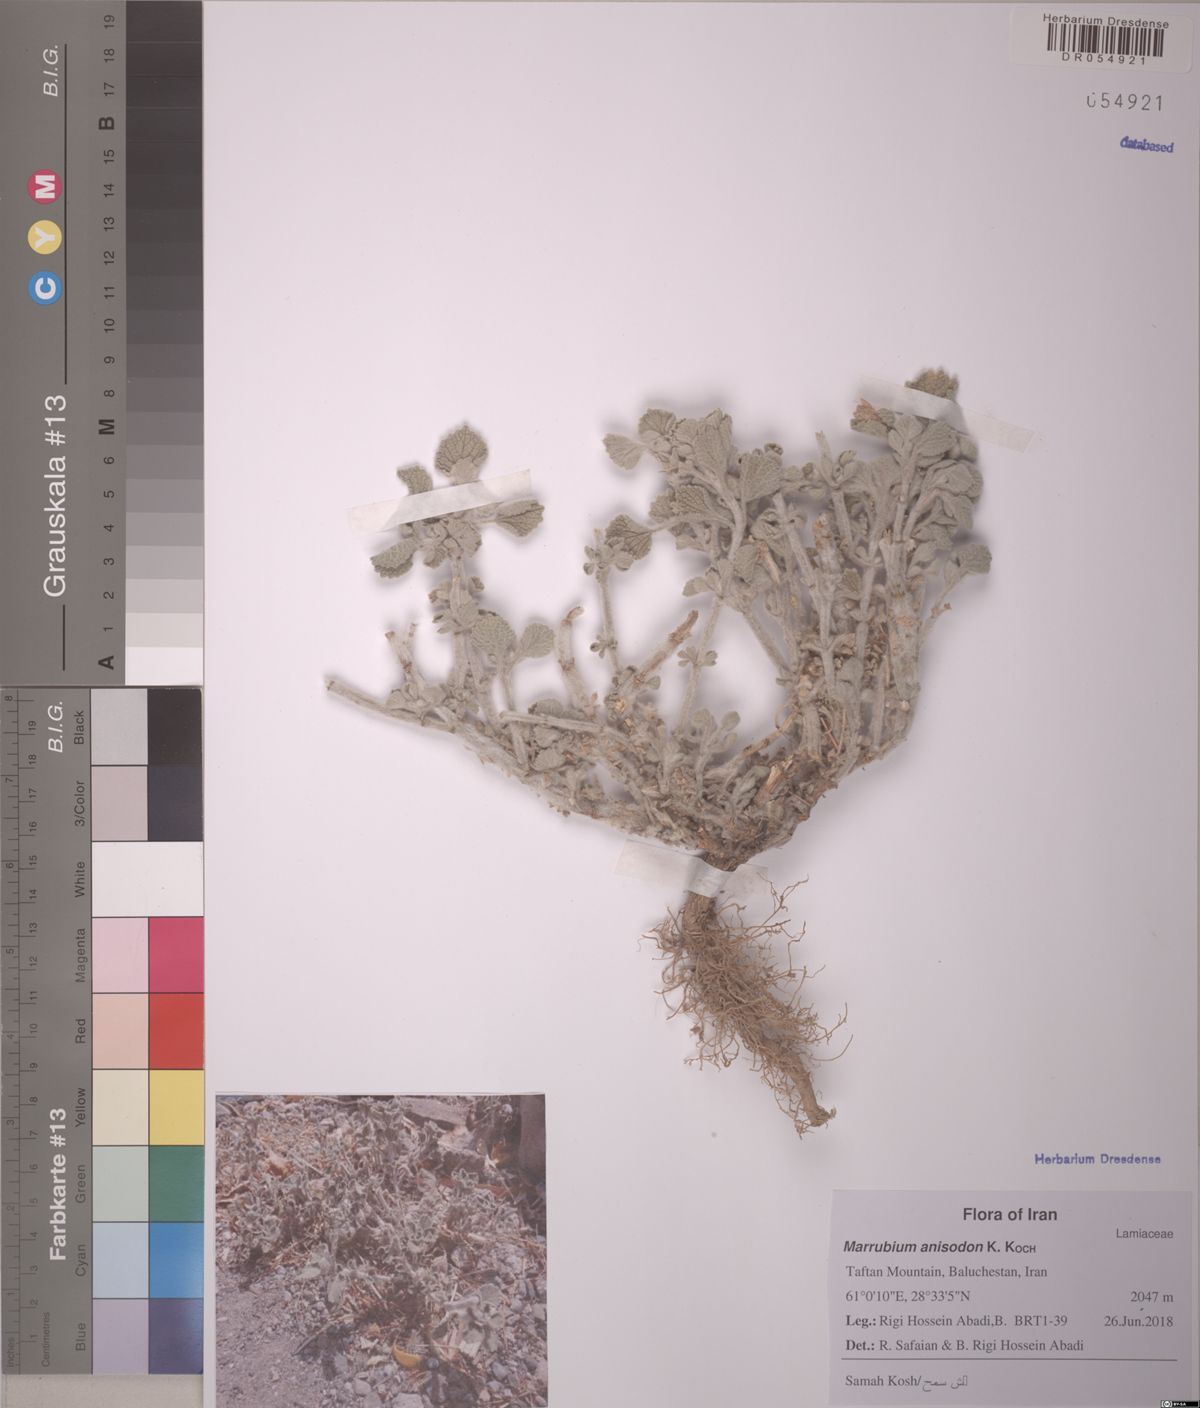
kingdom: Plantae
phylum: Tracheophyta
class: Magnoliopsida
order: Solanales
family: Solanaceae
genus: Hyoscyamus
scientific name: Hyoscyamus malekianus
